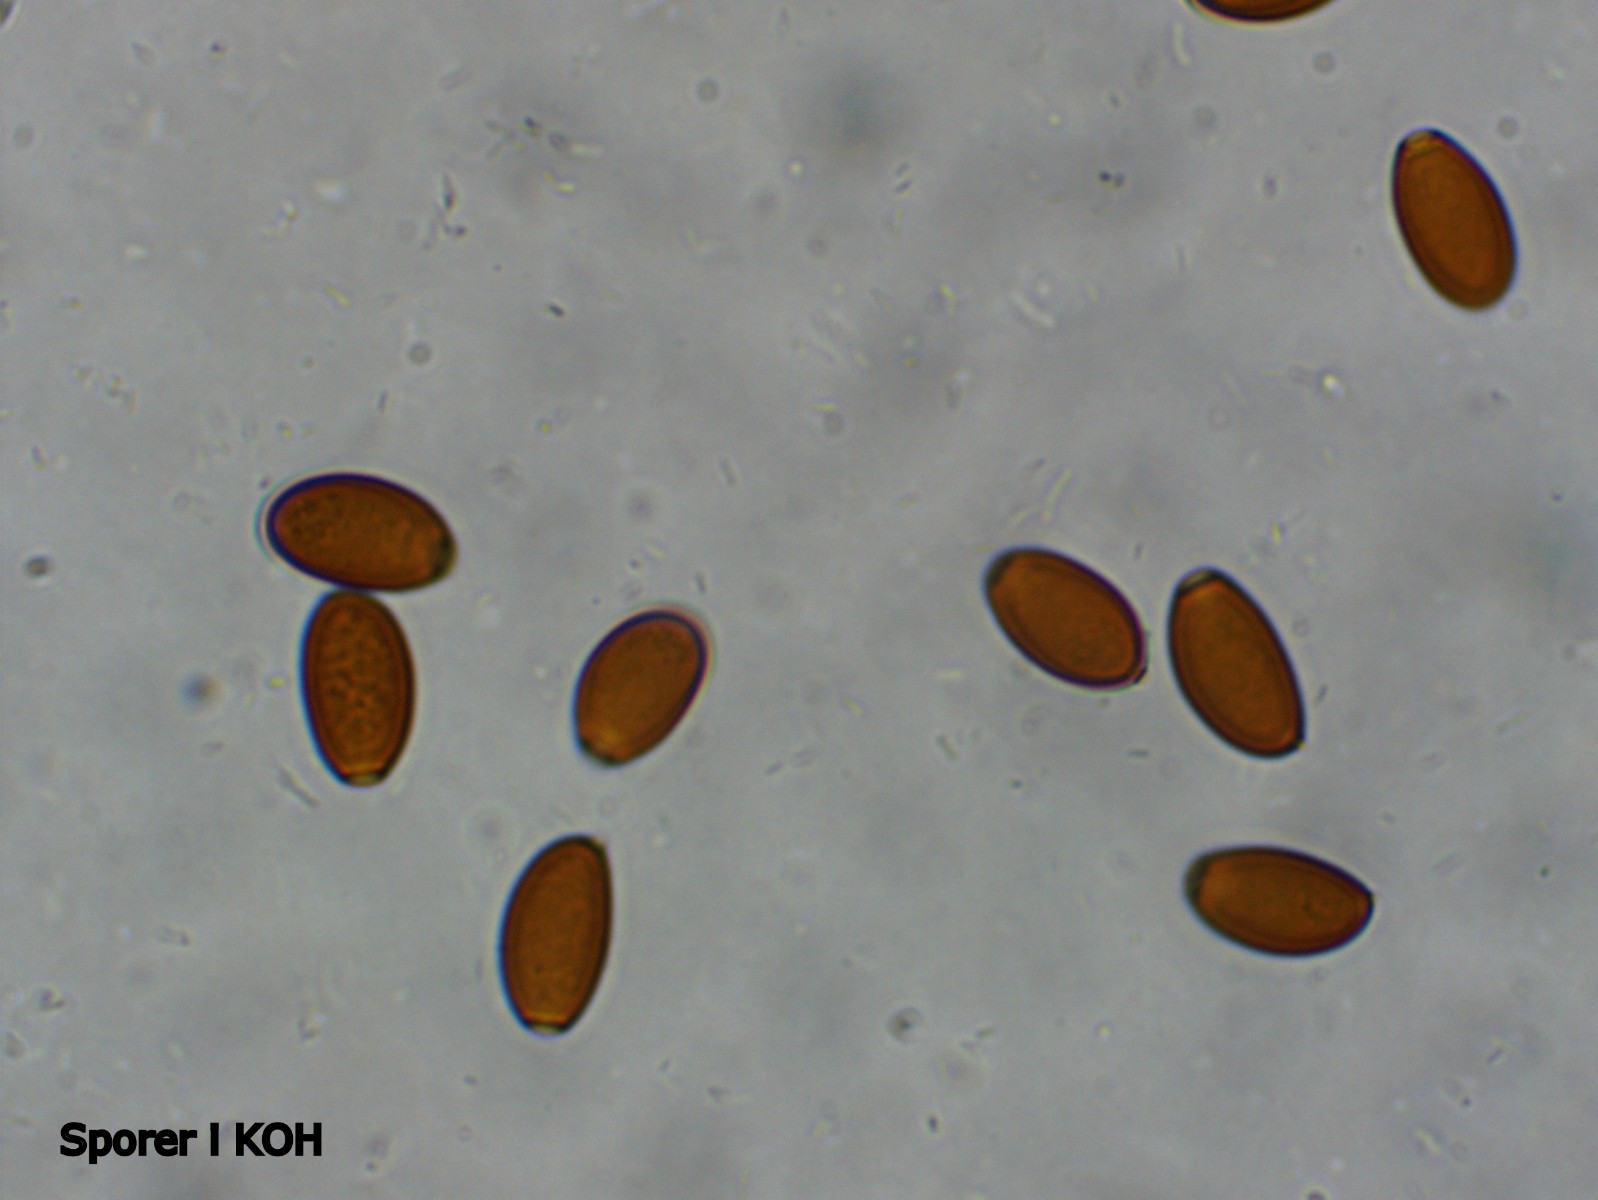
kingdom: Fungi
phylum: Basidiomycota
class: Agaricomycetes
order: Agaricales
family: Bolbitiaceae
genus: Conocybe
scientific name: Conocybe
